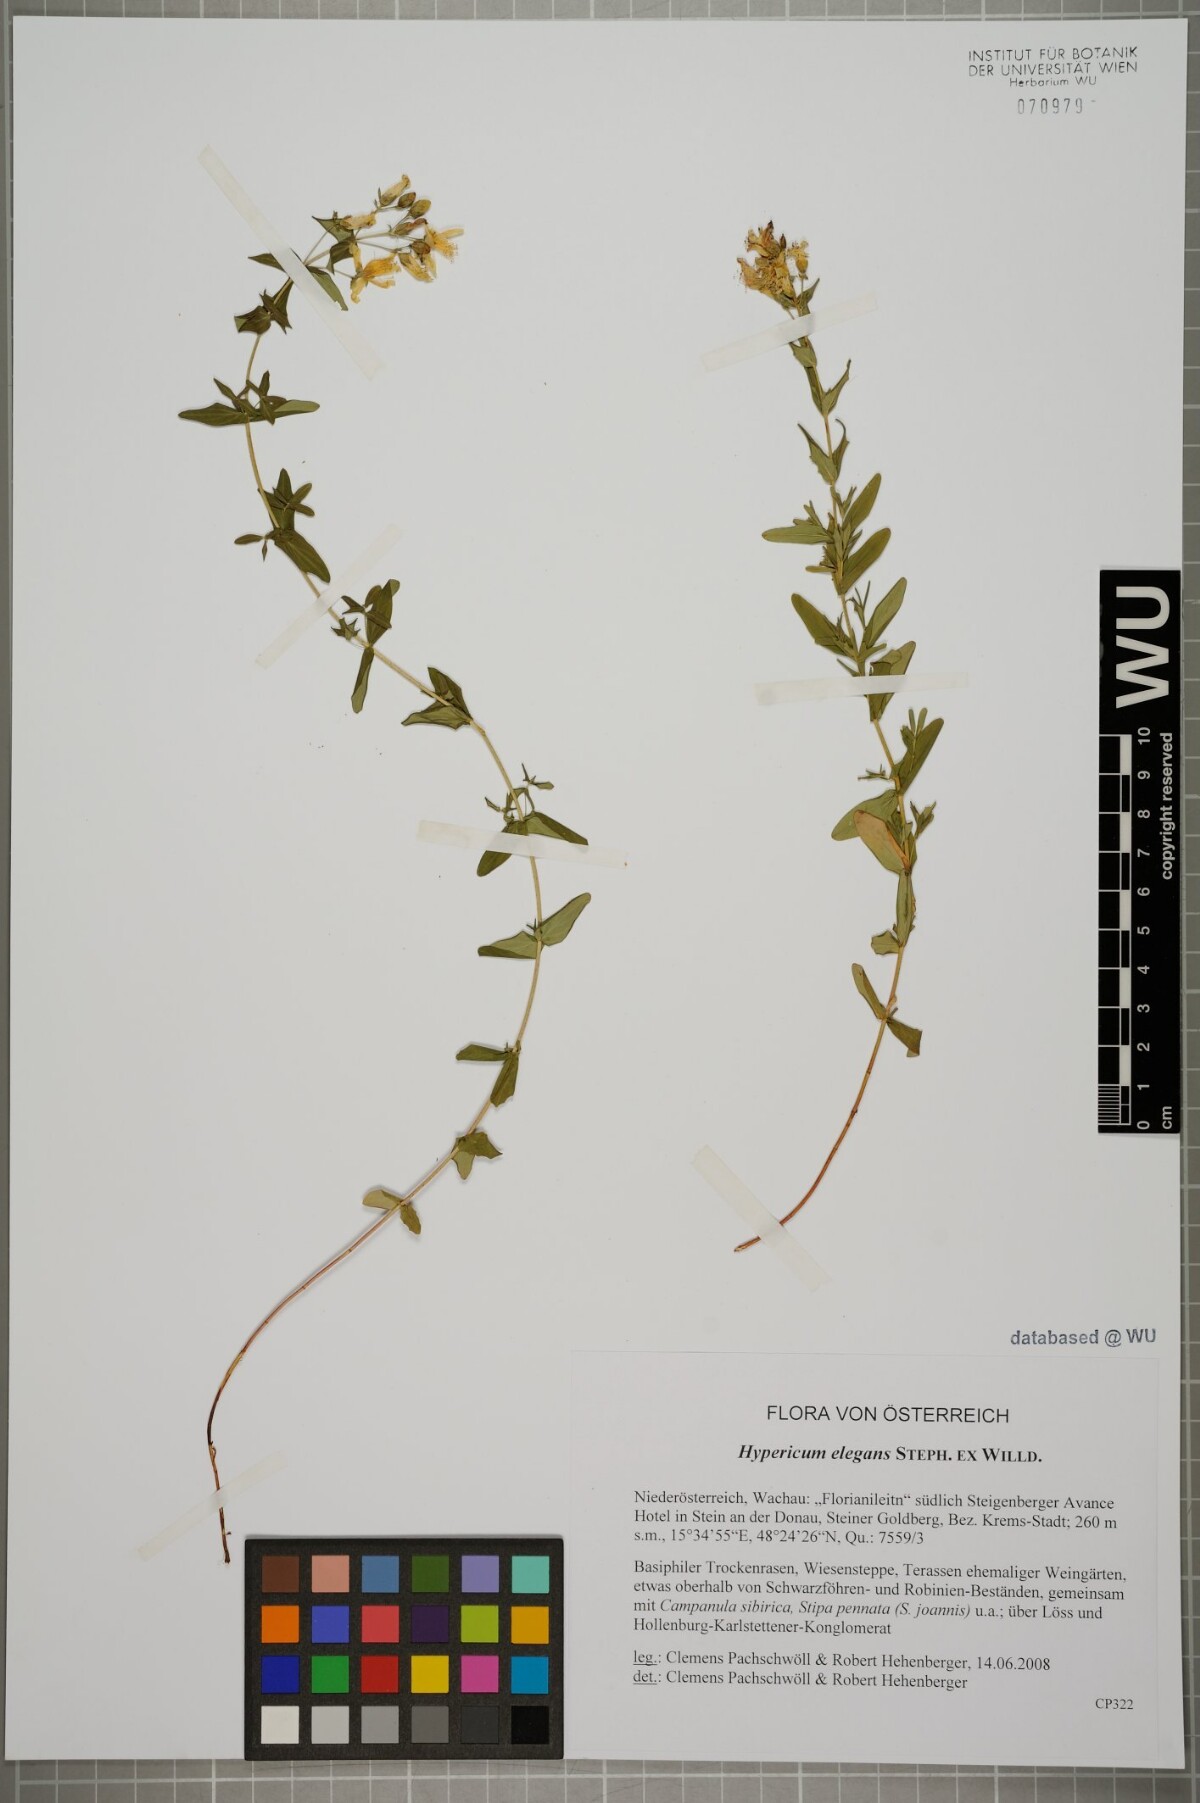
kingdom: Plantae
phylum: Tracheophyta
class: Magnoliopsida
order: Malpighiales
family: Hypericaceae
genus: Hypericum
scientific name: Hypericum elegans
